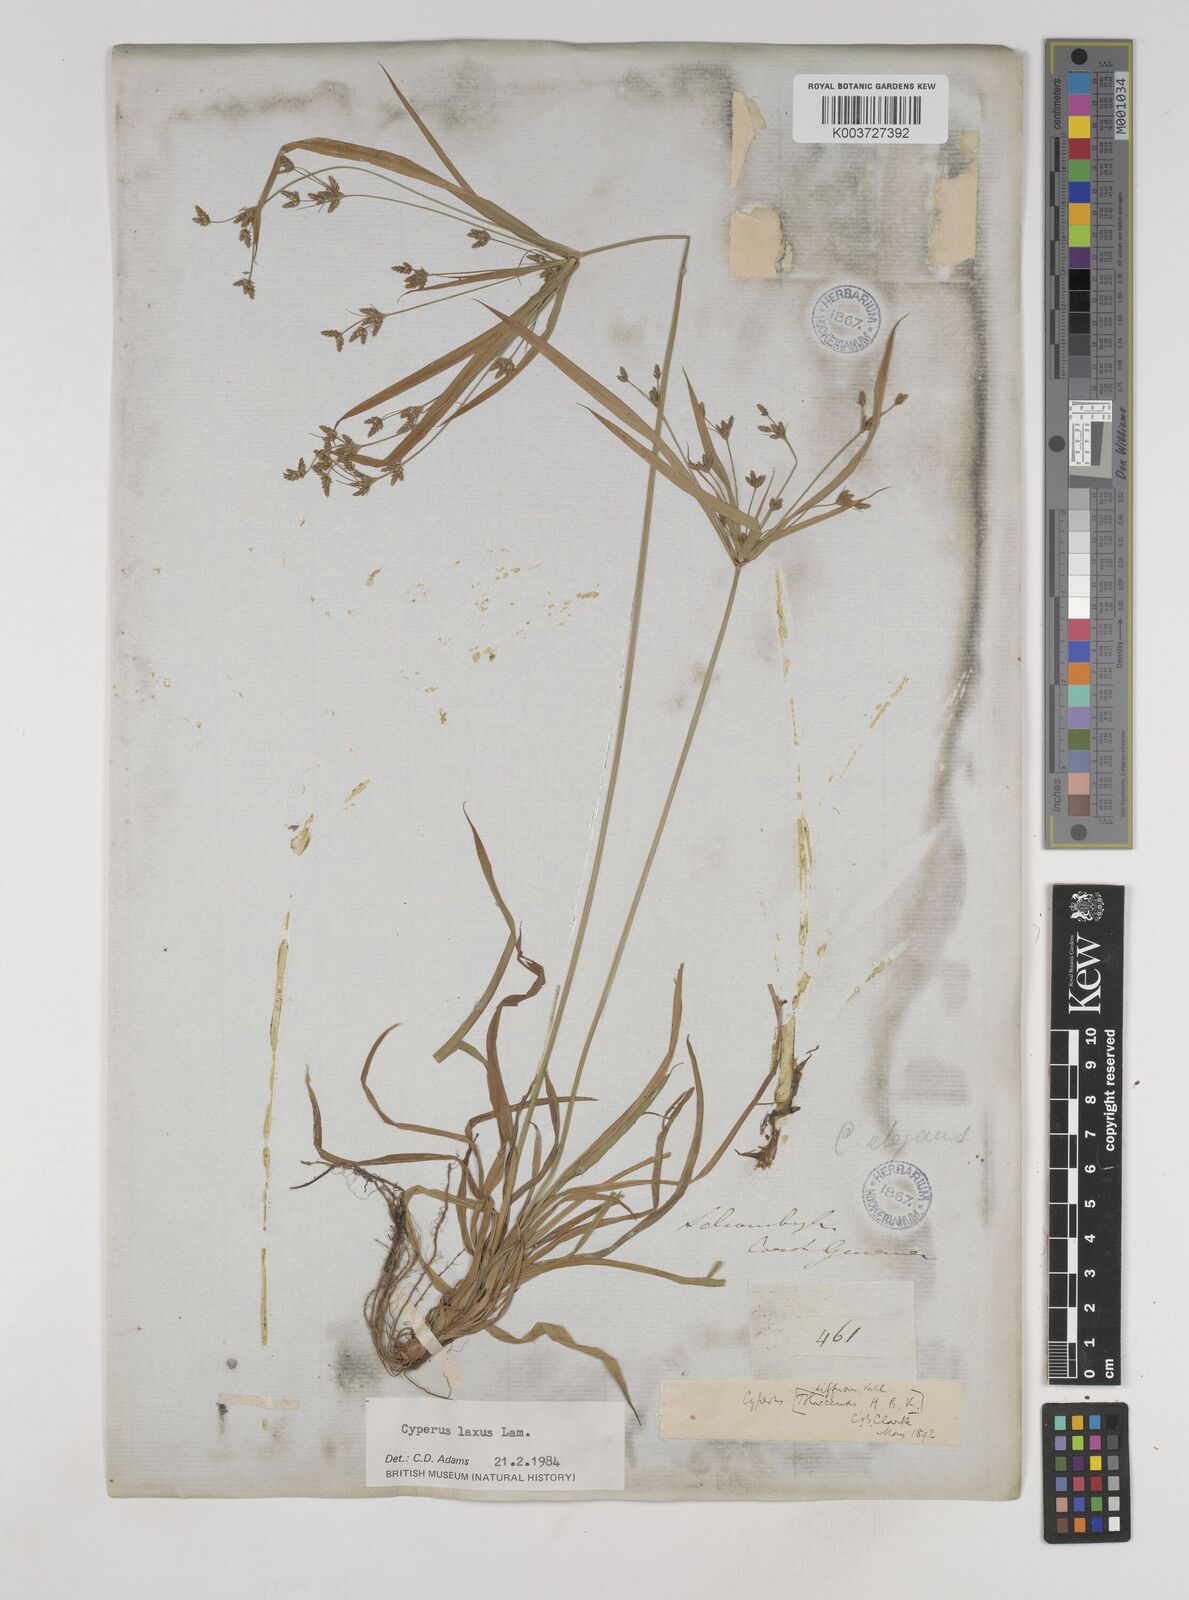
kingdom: Plantae
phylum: Tracheophyta
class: Liliopsida
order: Poales
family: Cyperaceae
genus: Cyperus
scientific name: Cyperus chalaranthus
